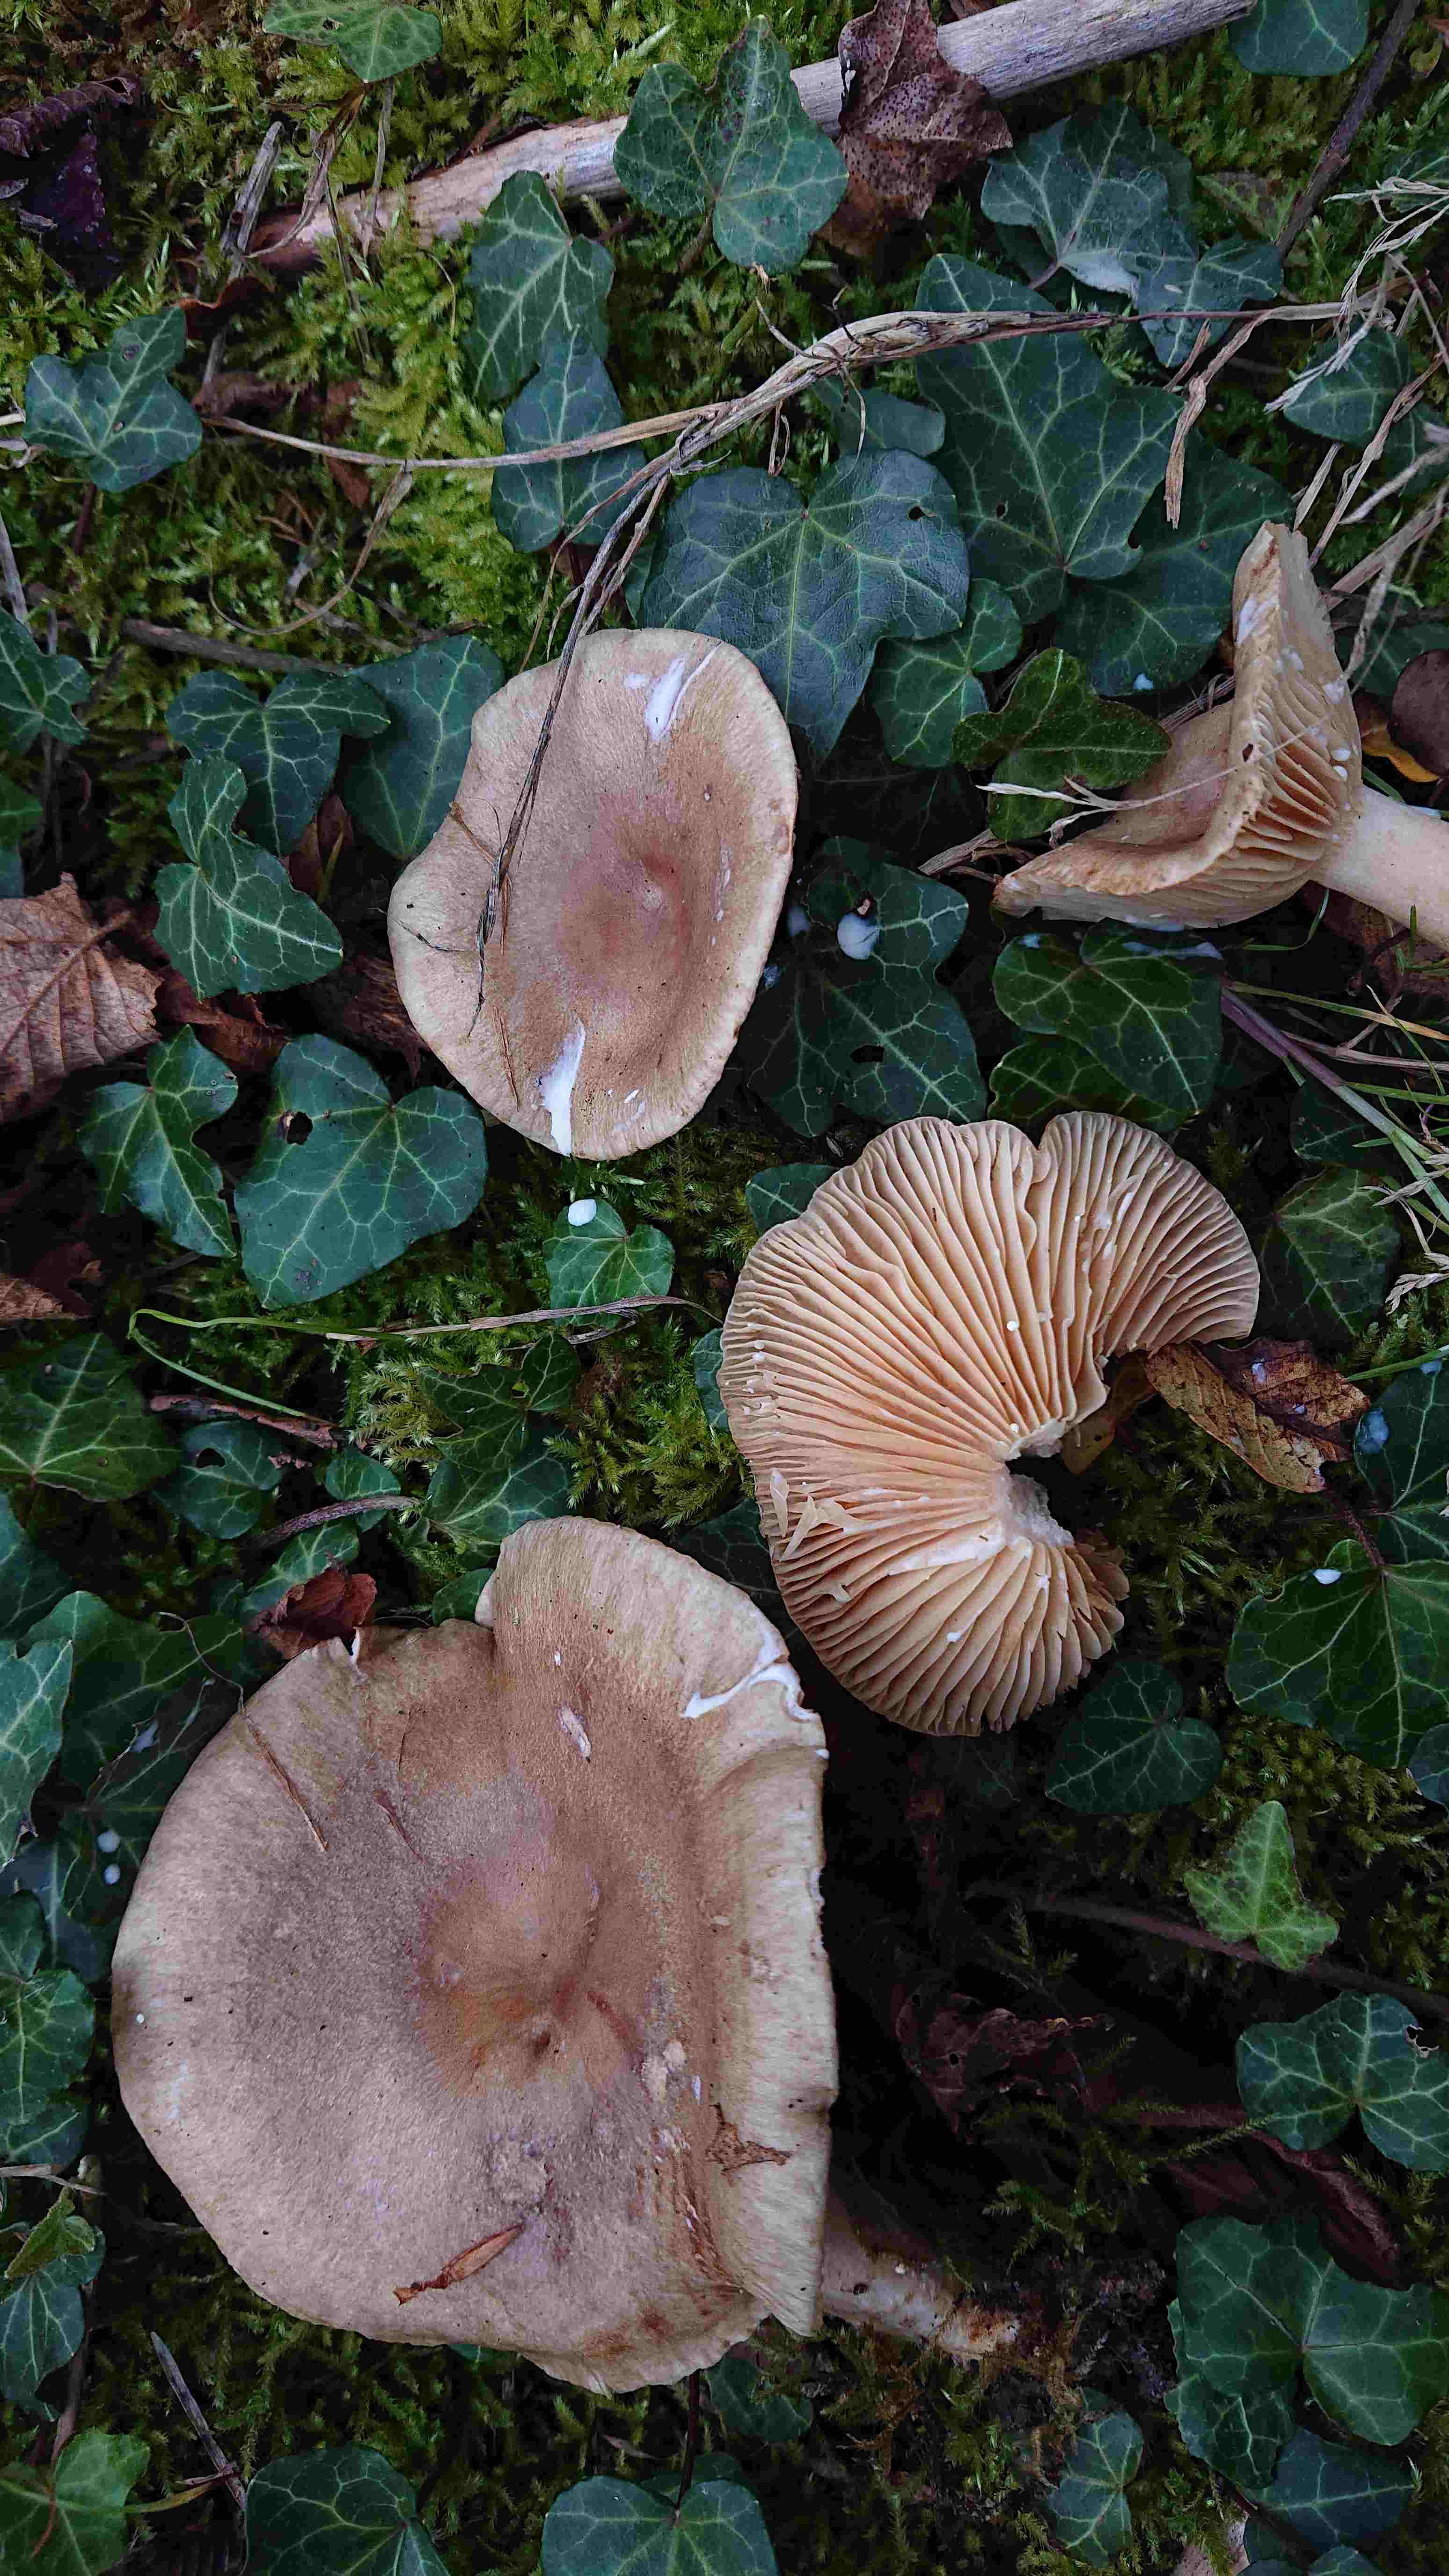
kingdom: Fungi
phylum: Basidiomycota
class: Agaricomycetes
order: Russulales
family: Russulaceae
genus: Lactarius
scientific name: Lactarius pyrogalus
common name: hassel-mælkehat
